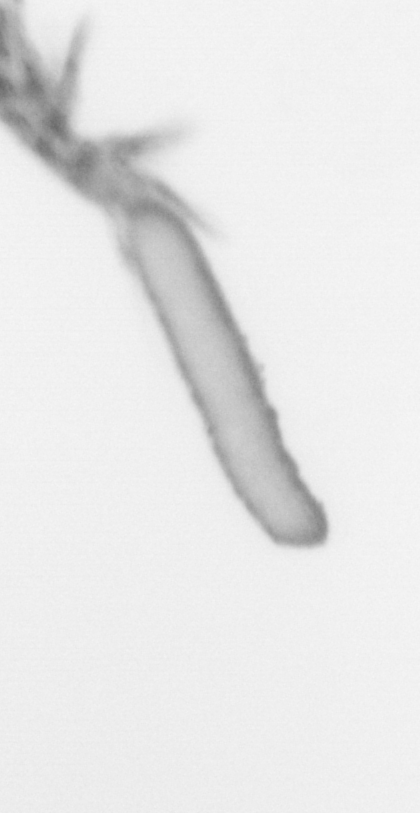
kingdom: Animalia
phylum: Arthropoda
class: Copepoda
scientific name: Copepoda
